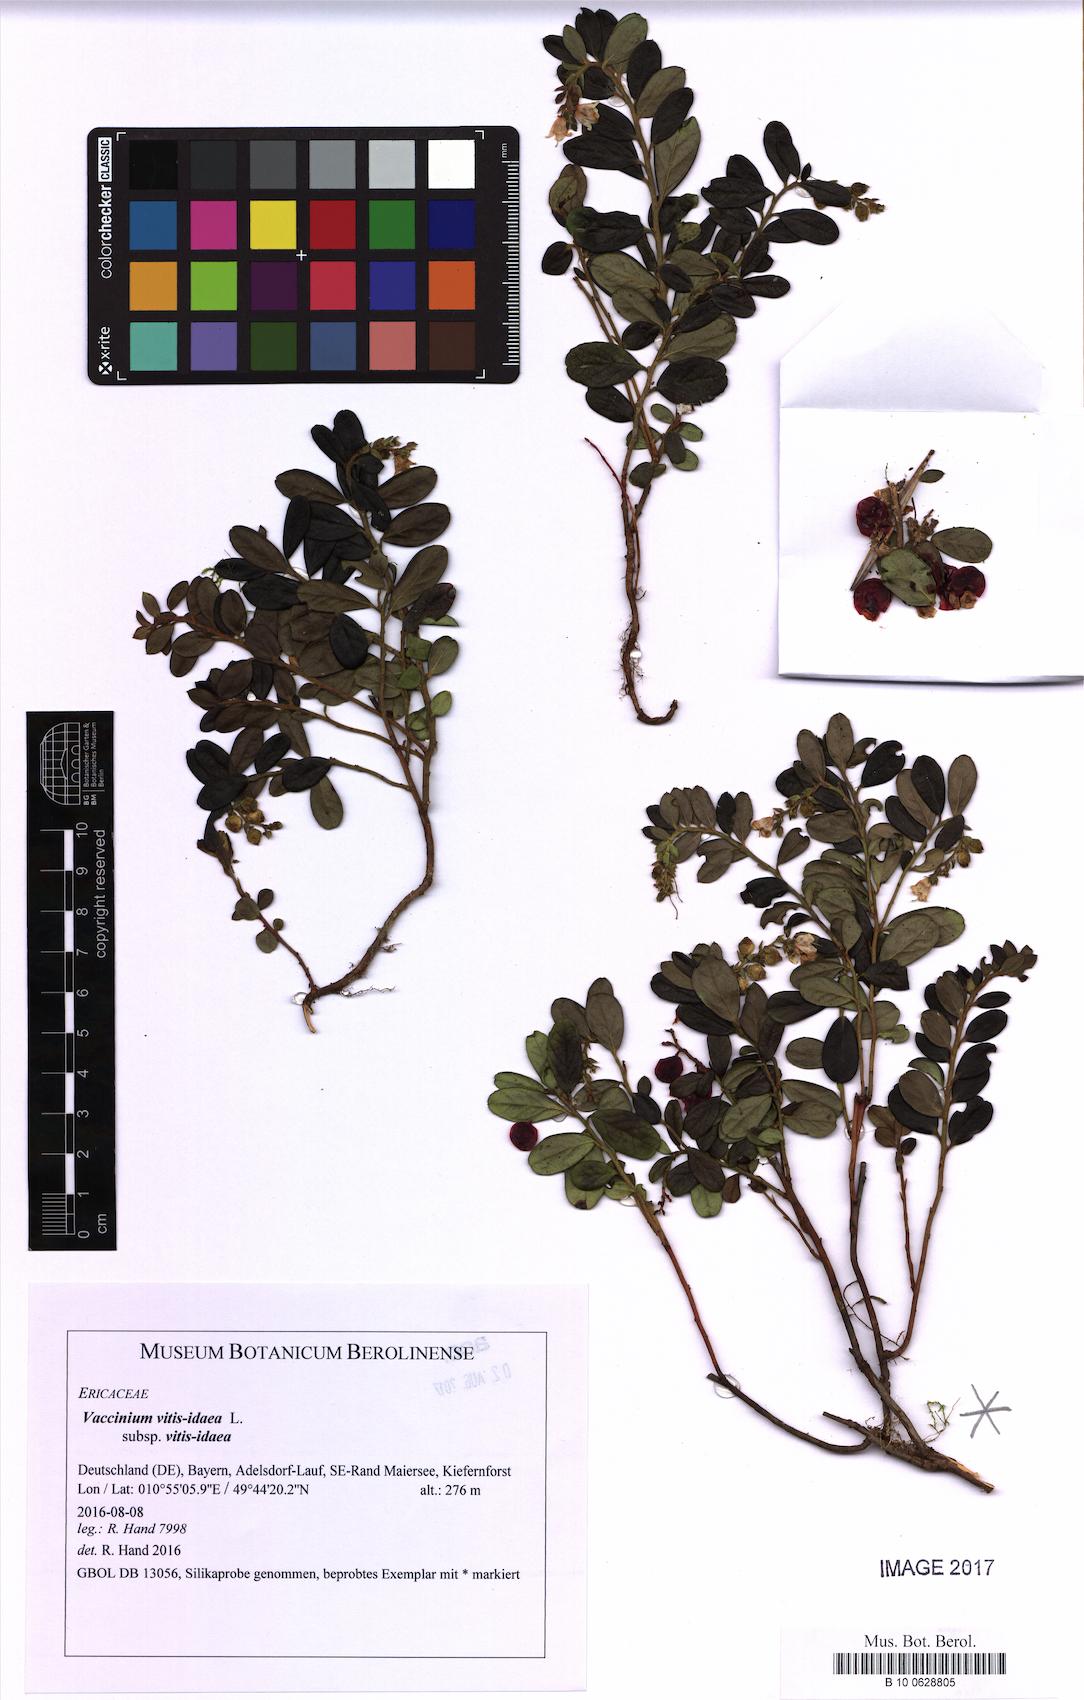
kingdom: Plantae
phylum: Tracheophyta
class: Magnoliopsida
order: Ericales
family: Ericaceae
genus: Vaccinium
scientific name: Vaccinium vitis-idaea
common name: Cowberry
